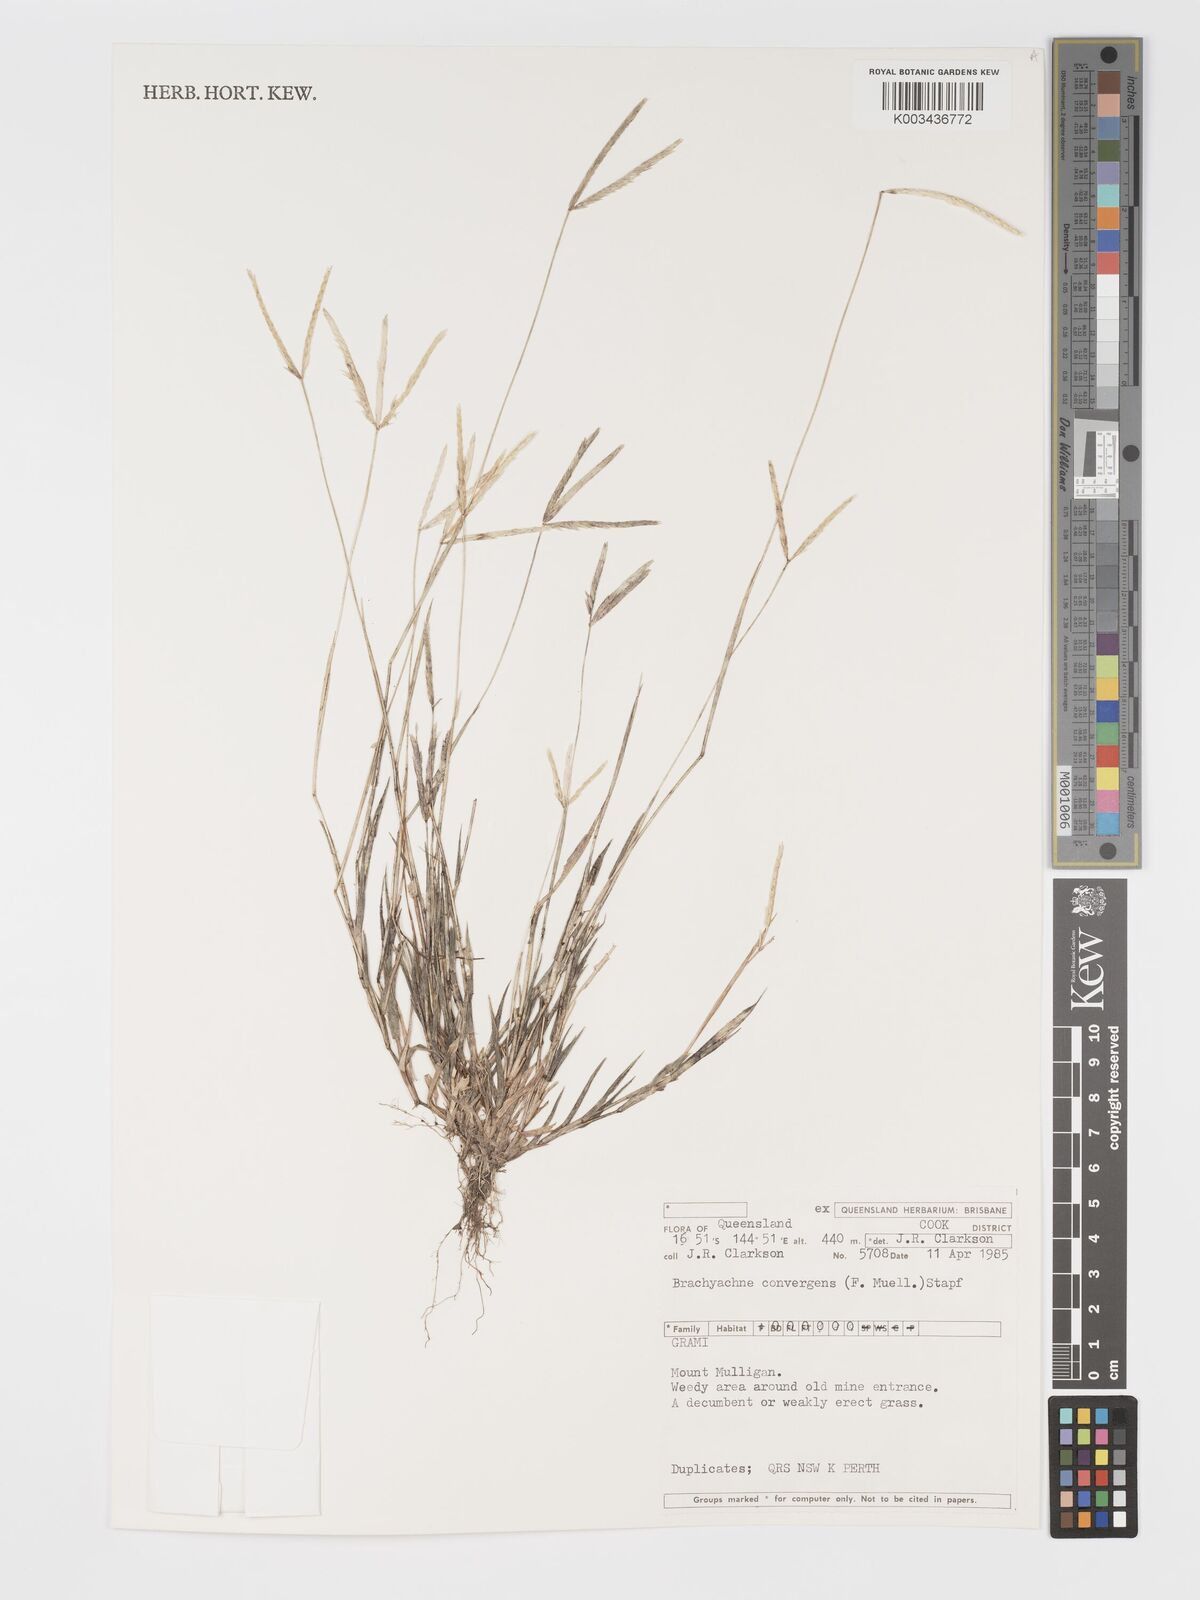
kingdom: Plantae
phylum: Tracheophyta
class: Liliopsida
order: Poales
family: Poaceae
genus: Cynodon
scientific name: Cynodon convergens
